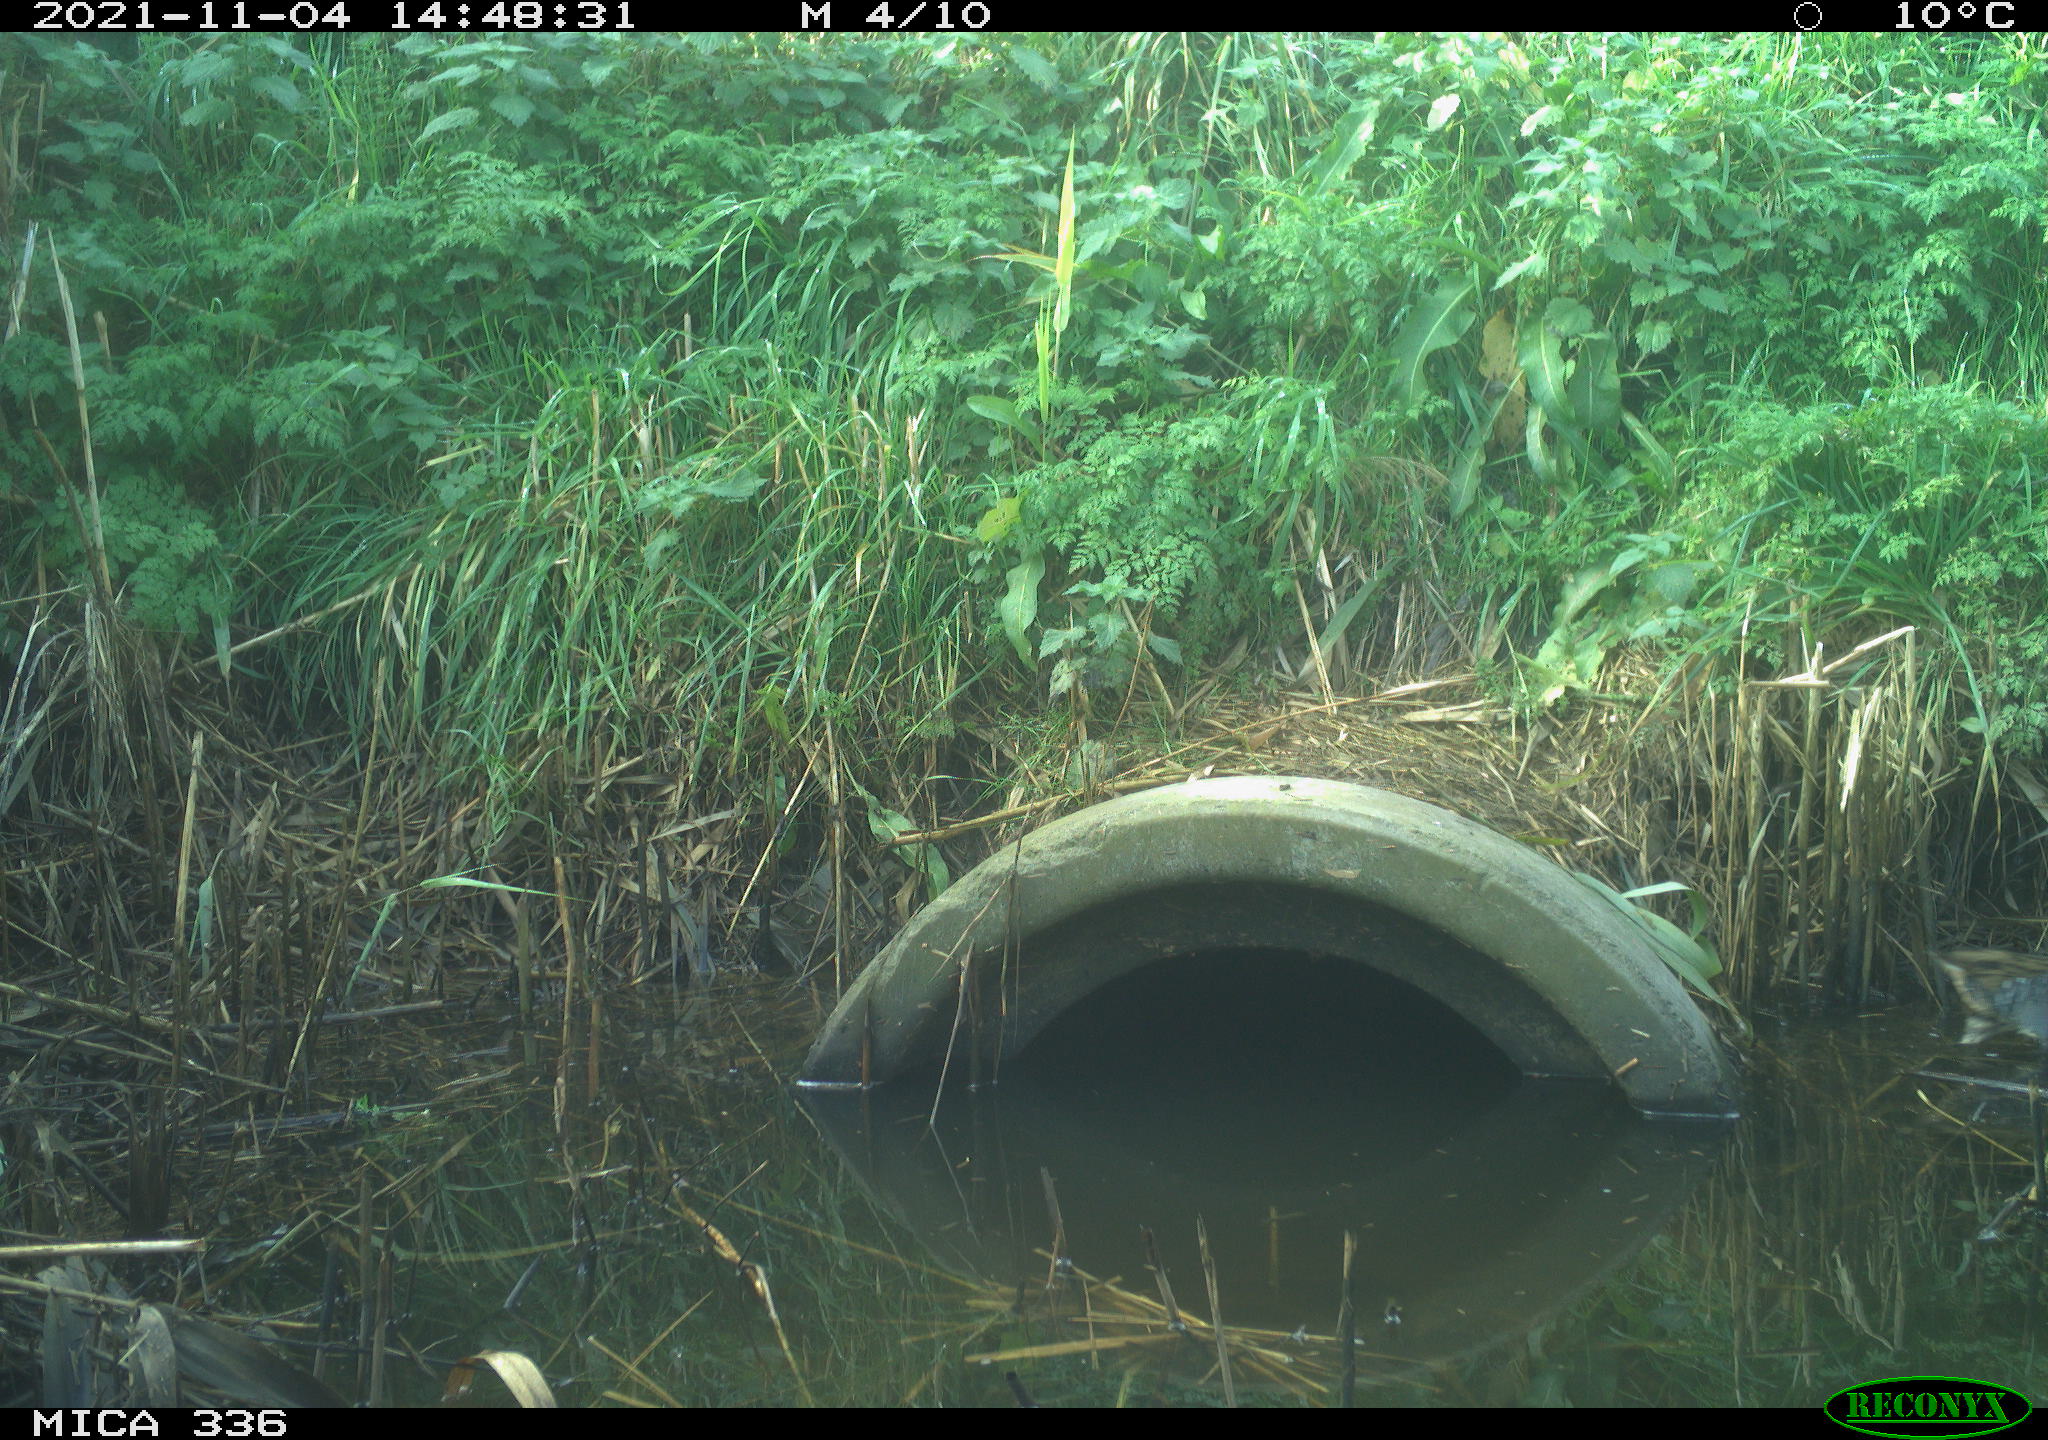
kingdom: Animalia
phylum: Chordata
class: Aves
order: Gruiformes
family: Rallidae
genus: Gallinula
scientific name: Gallinula chloropus
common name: Common moorhen
